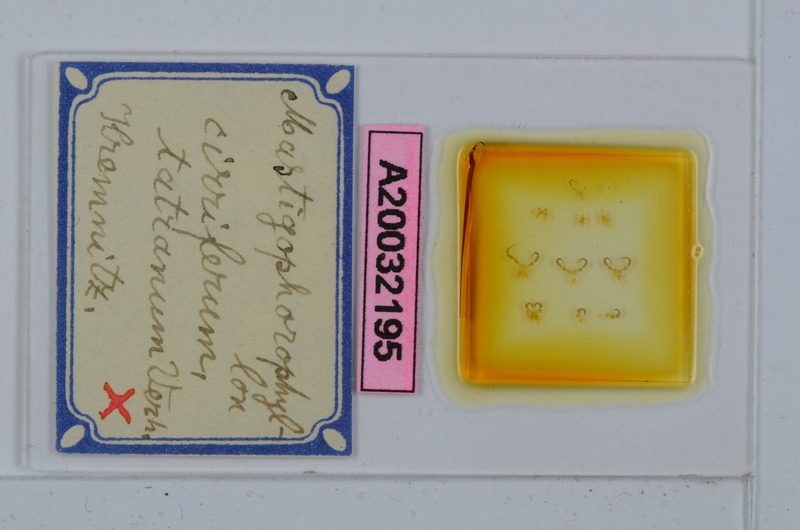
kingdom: Animalia
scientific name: Animalia
